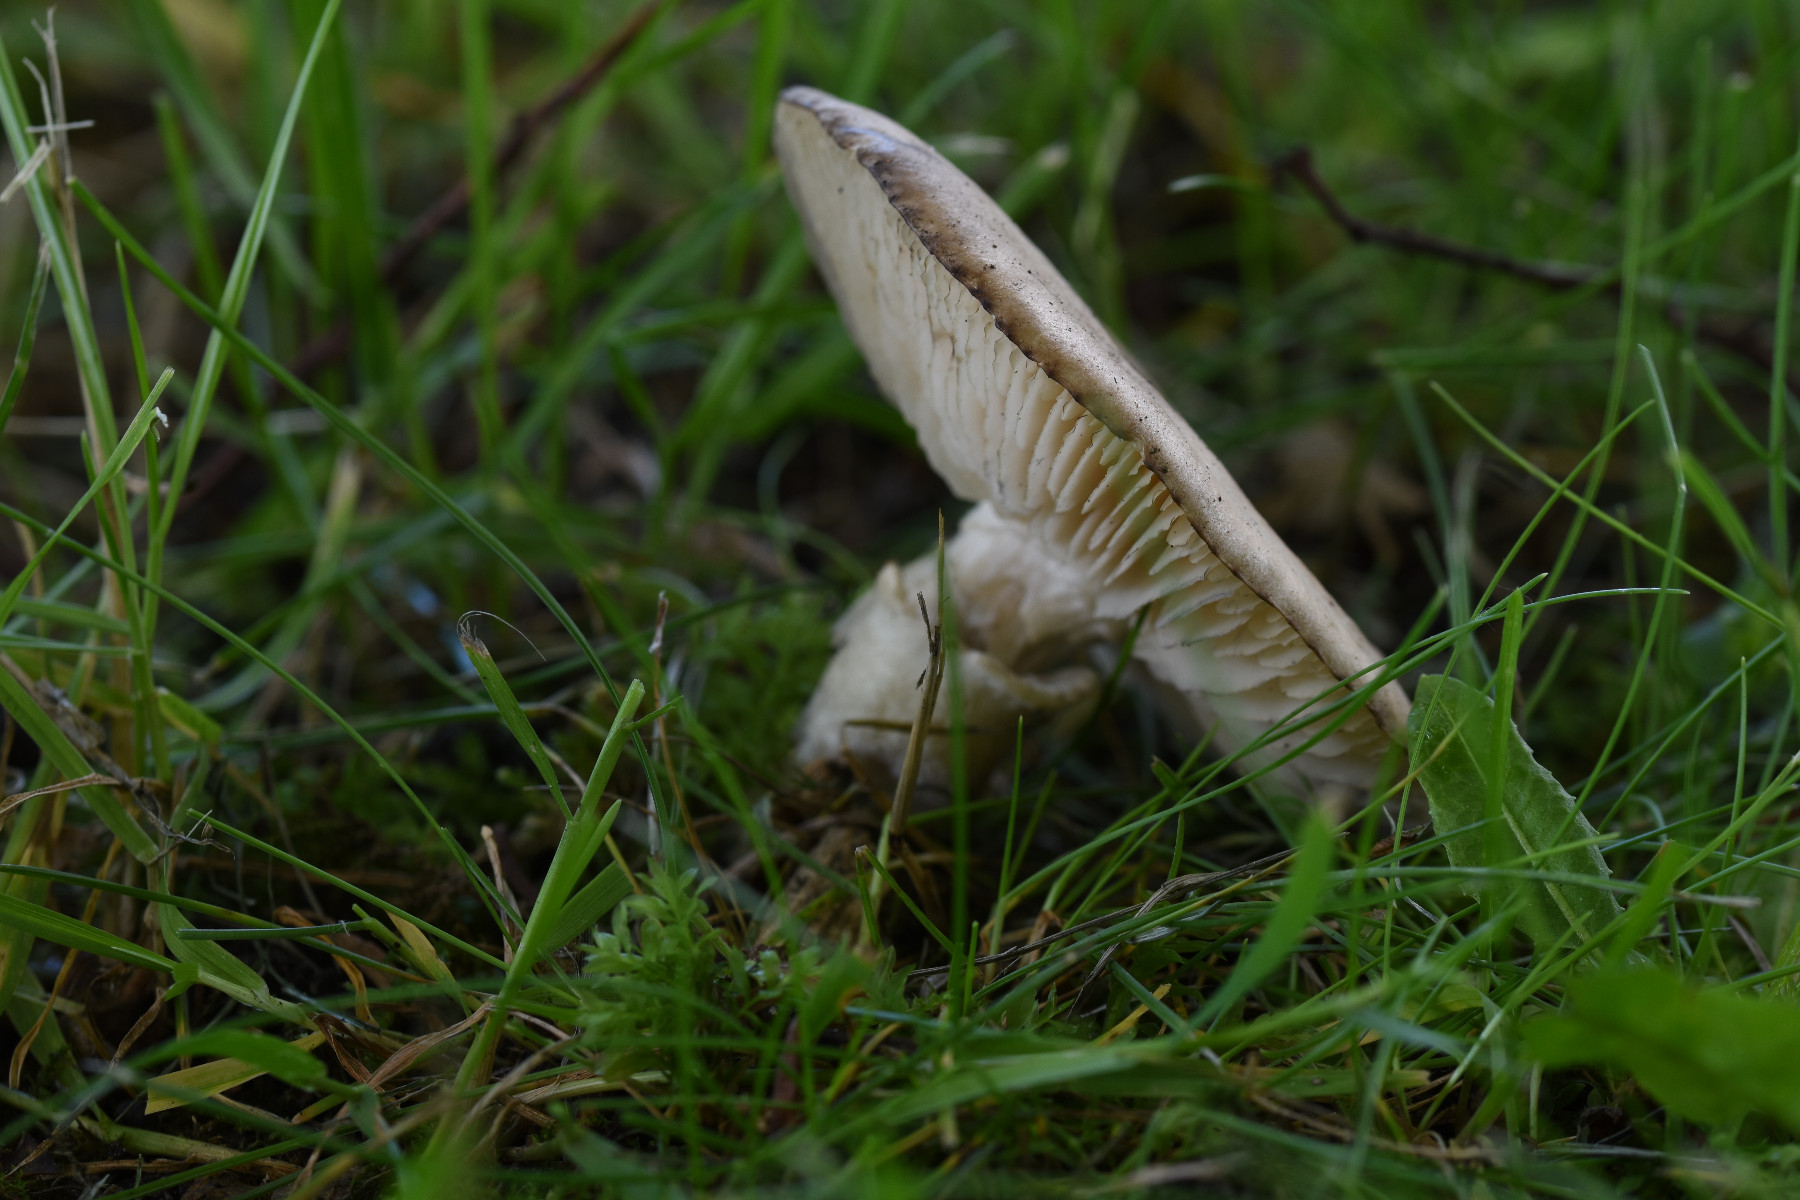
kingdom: Fungi
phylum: Basidiomycota
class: Agaricomycetes
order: Agaricales
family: Lyophyllaceae
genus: Lyophyllum
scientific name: Lyophyllum paelochroum
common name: blånende gråblad
